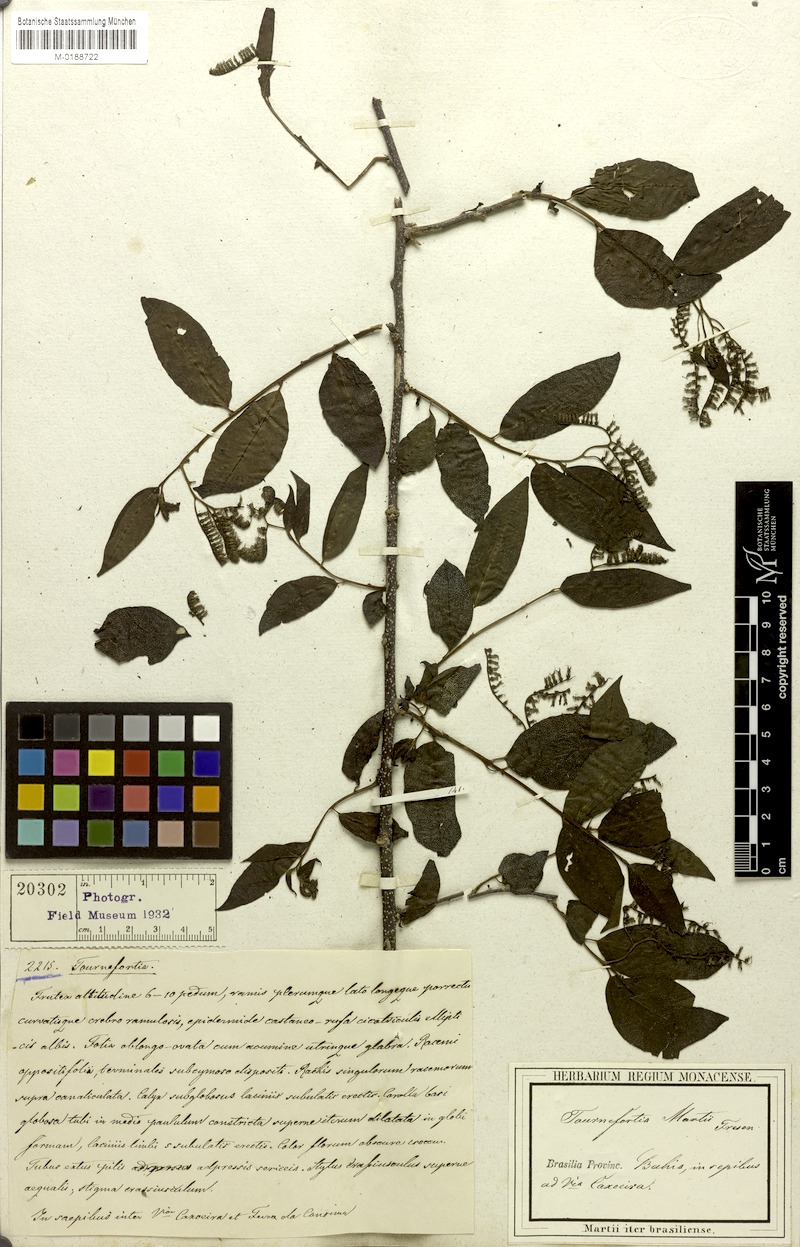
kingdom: Plantae
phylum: Tracheophyta
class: Magnoliopsida
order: Boraginales
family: Heliotropiaceae
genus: Myriopus
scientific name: Myriopus rubicundus
